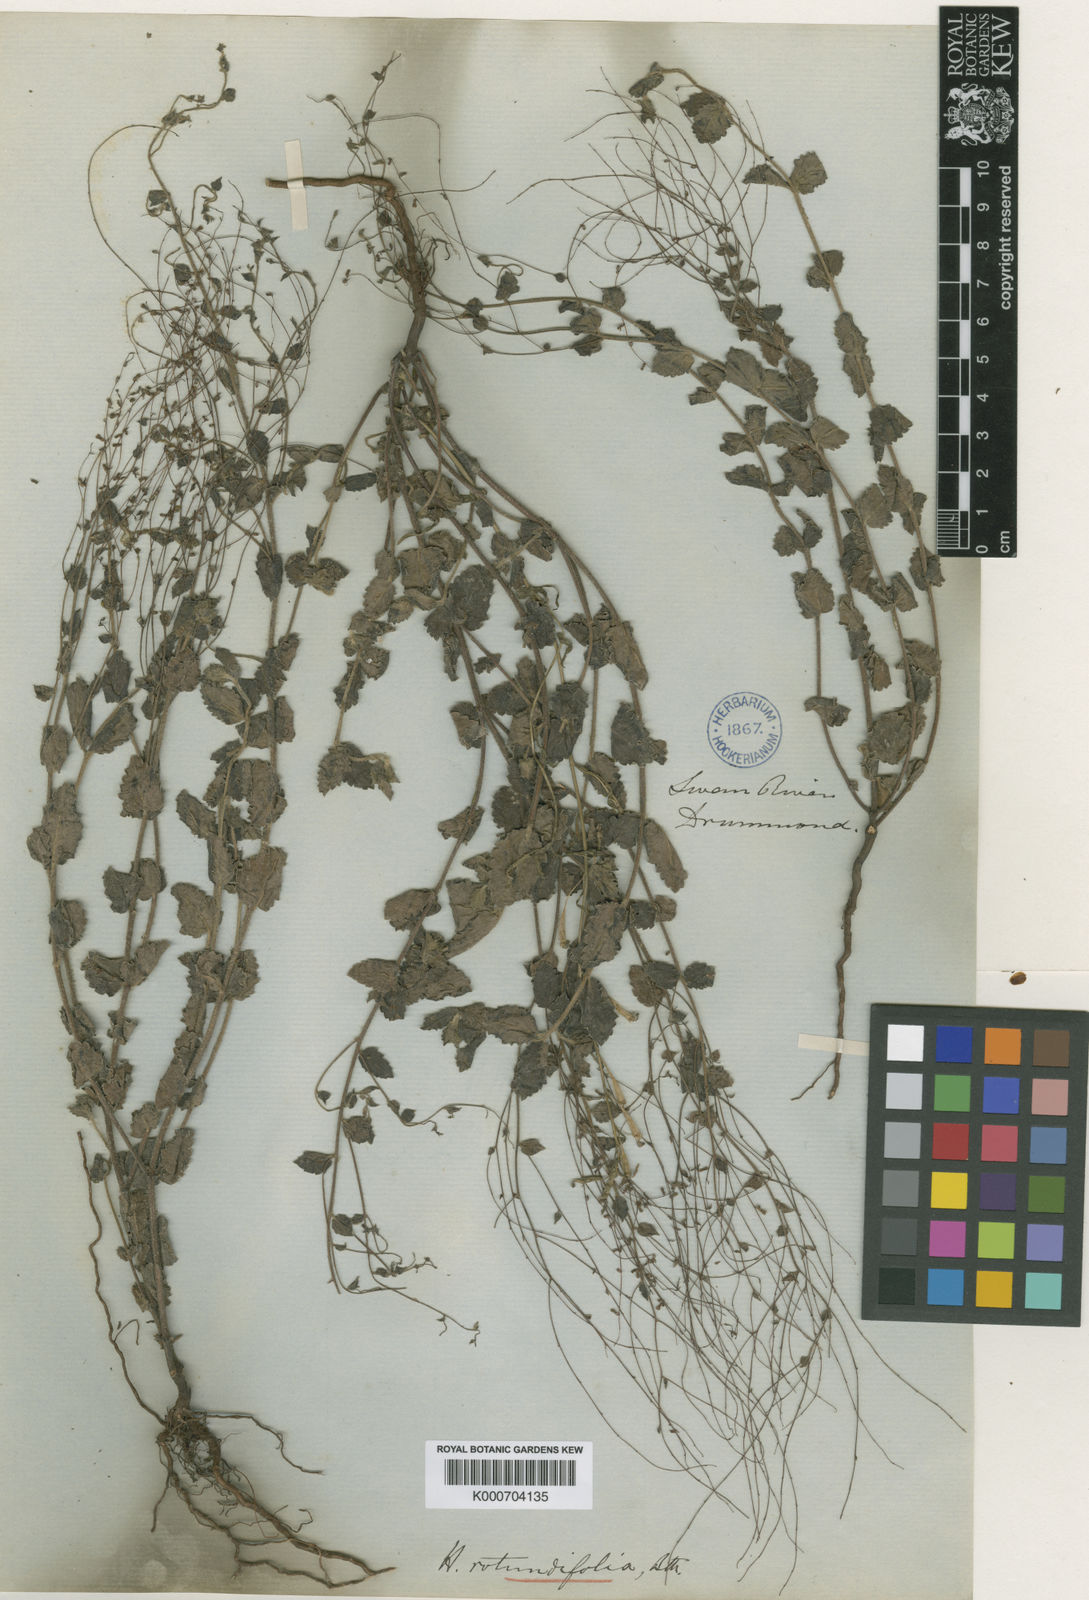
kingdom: Plantae
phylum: Tracheophyta
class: Magnoliopsida
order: Saxifragales
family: Haloragaceae
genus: Gonocarpus
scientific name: Gonocarpus benthamii
